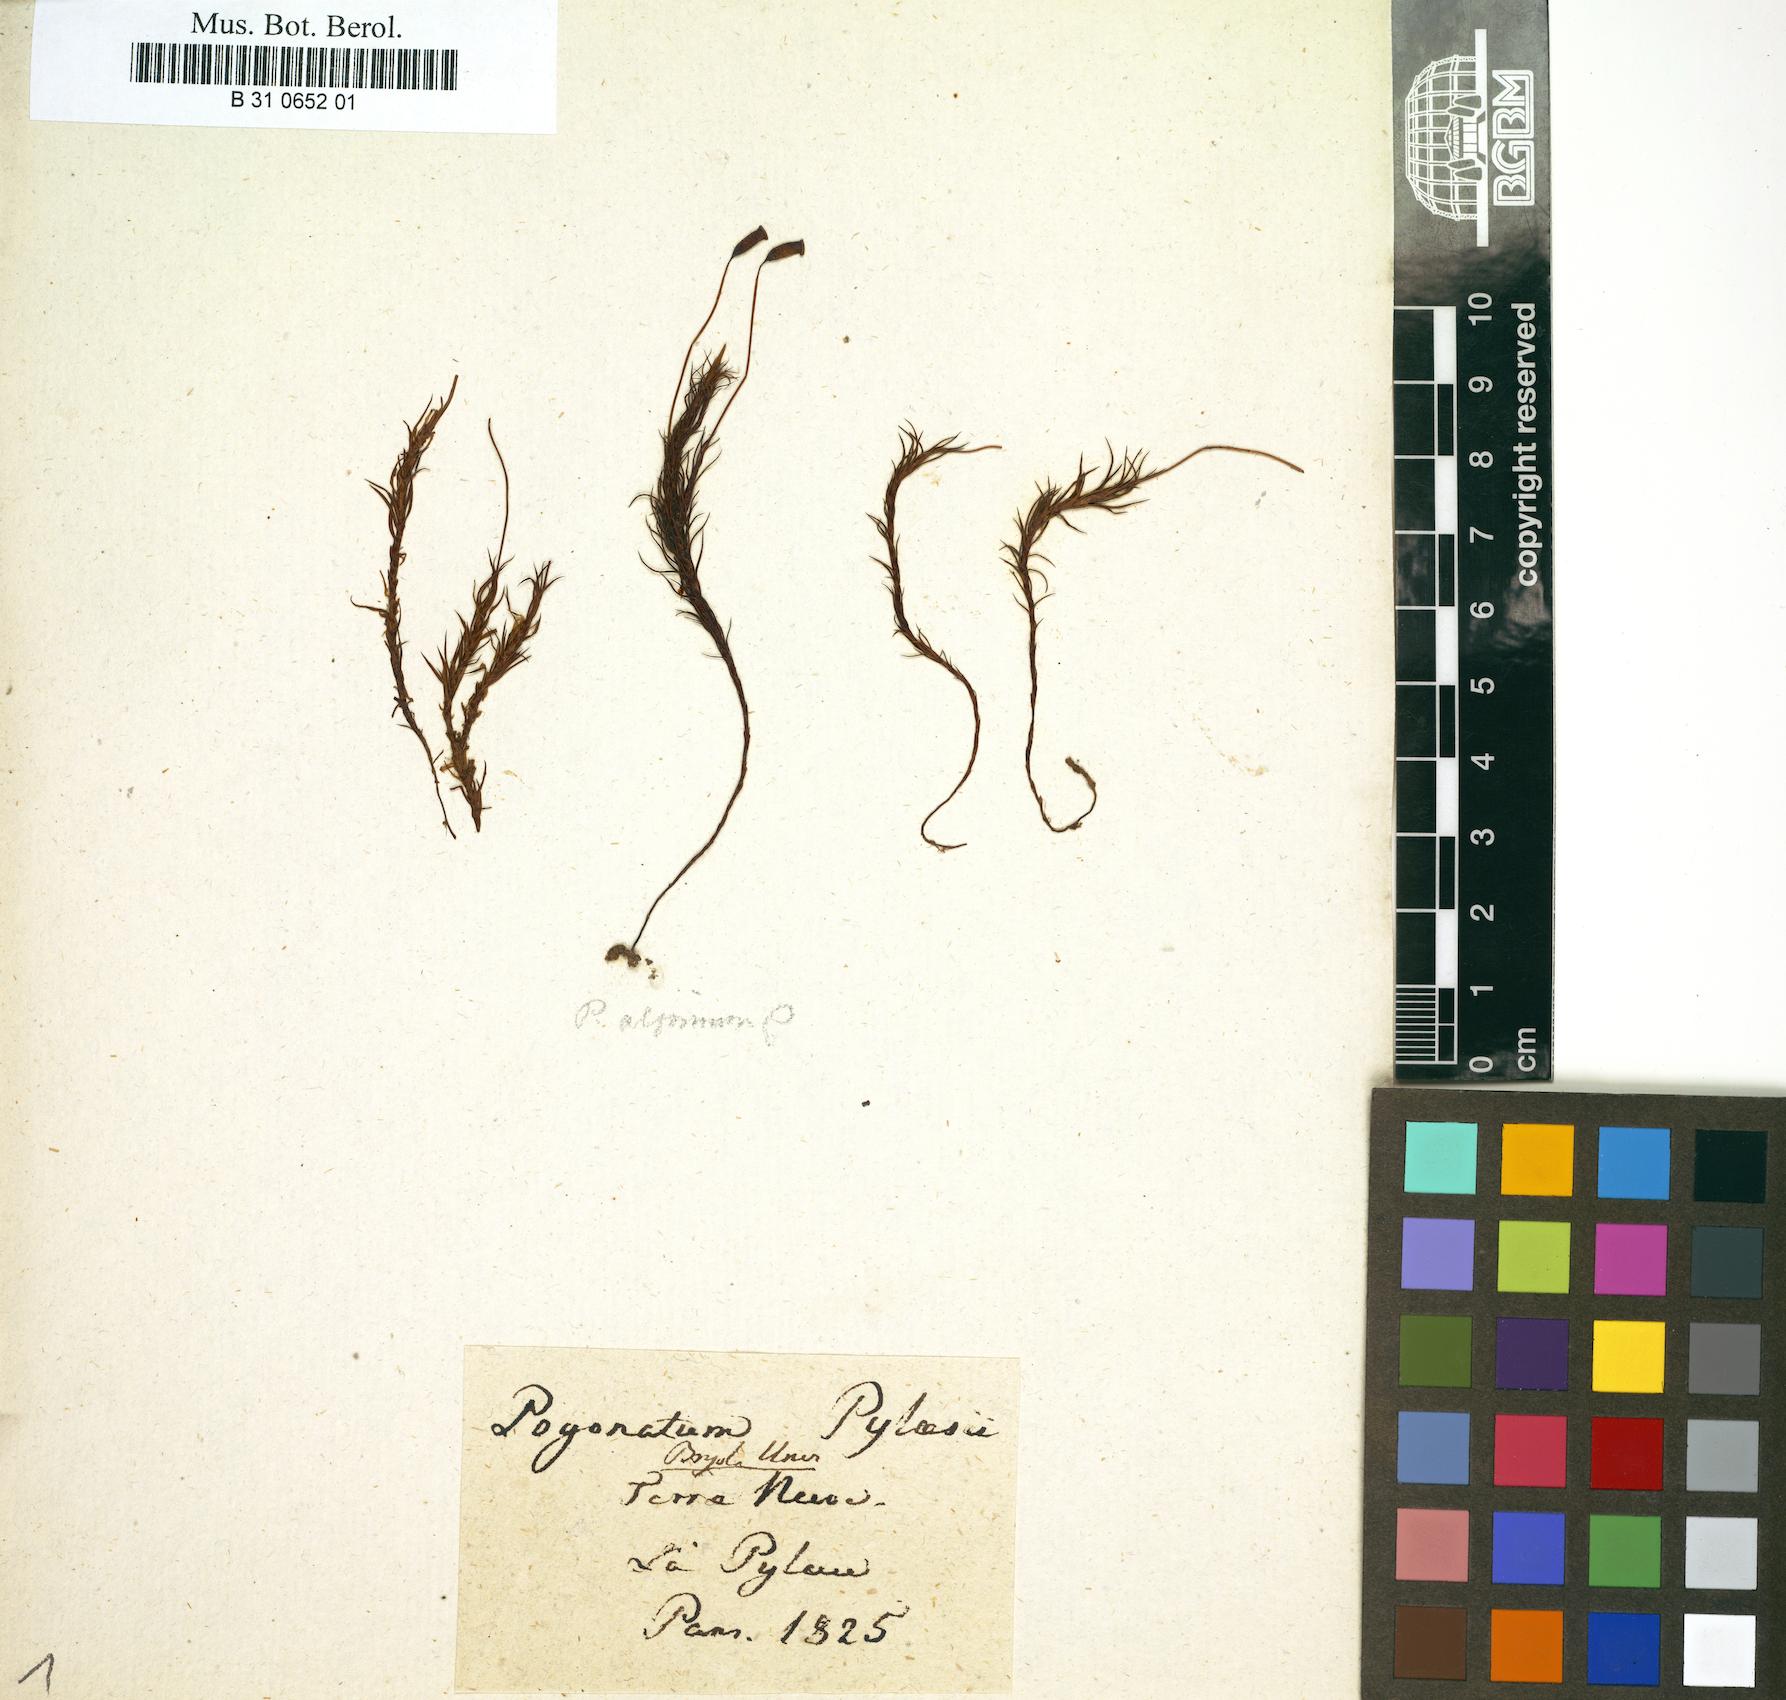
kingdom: Plantae
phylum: Bryophyta
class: Polytrichopsida
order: Polytrichales
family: Polytrichaceae
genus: Polytrichastrum
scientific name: Polytrichastrum alpinum
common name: Alpine haircap
